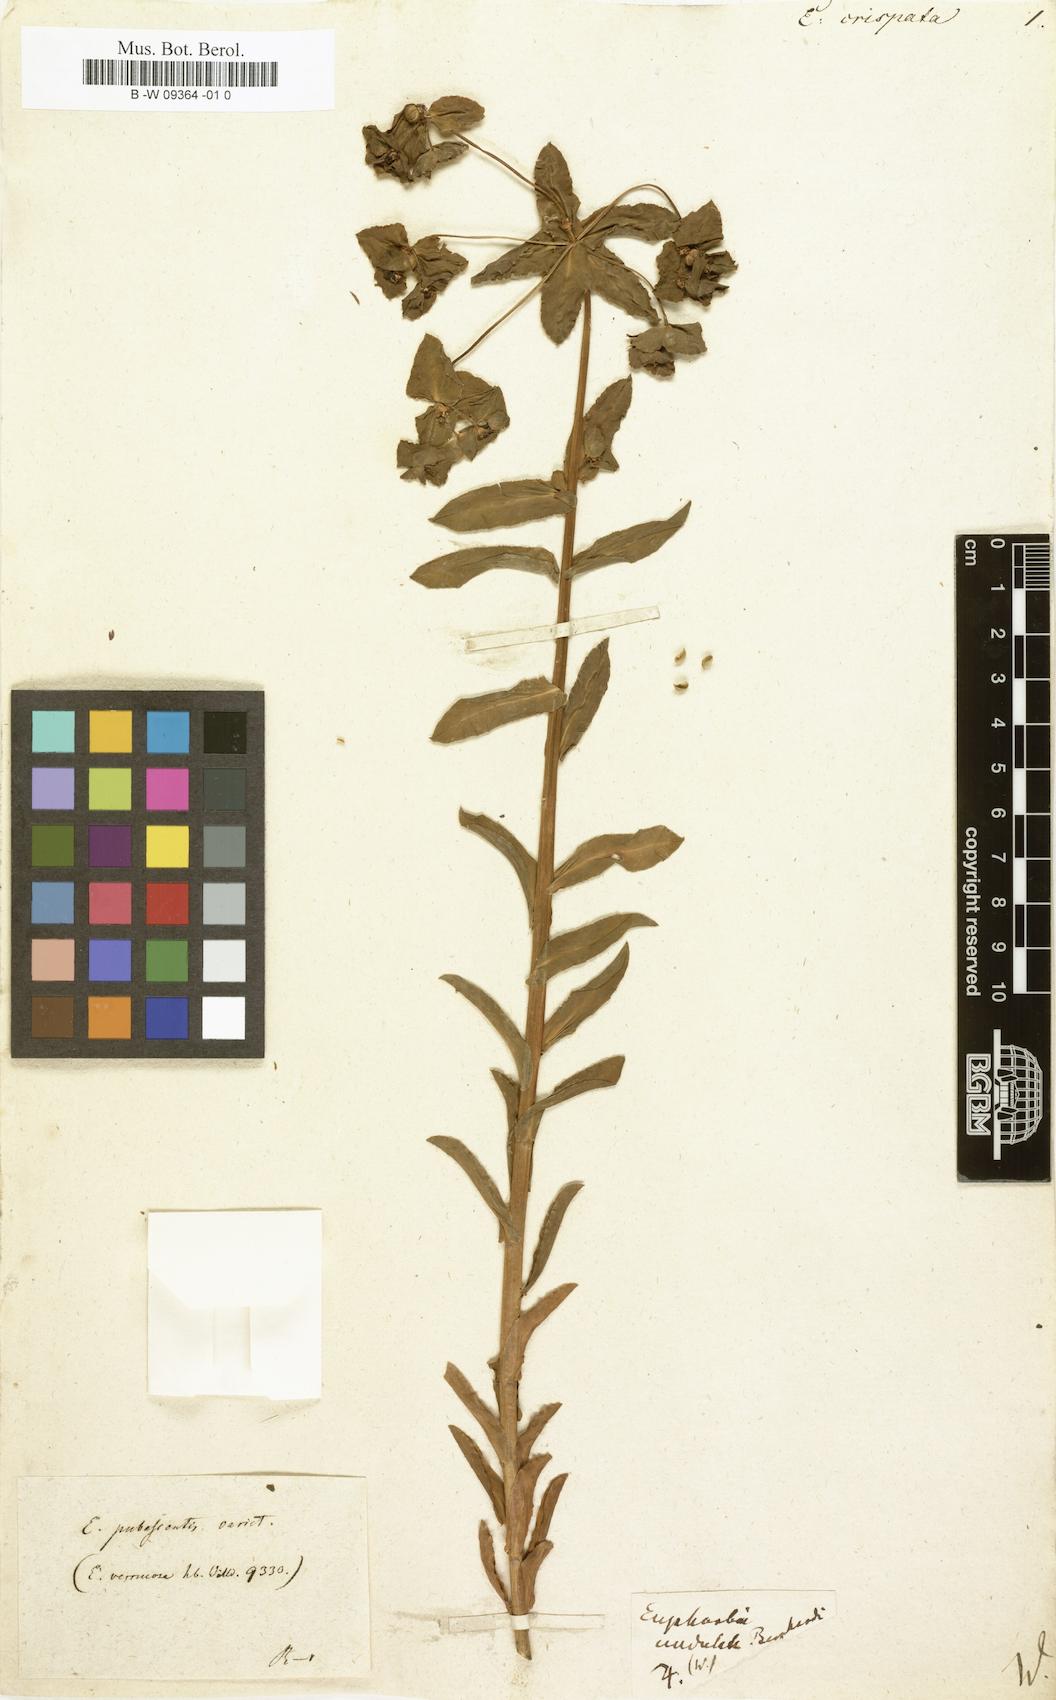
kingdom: Plantae
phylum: Tracheophyta
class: Magnoliopsida
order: Malpighiales
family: Euphorbiaceae
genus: Euphorbia
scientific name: Euphorbia hirsuta
